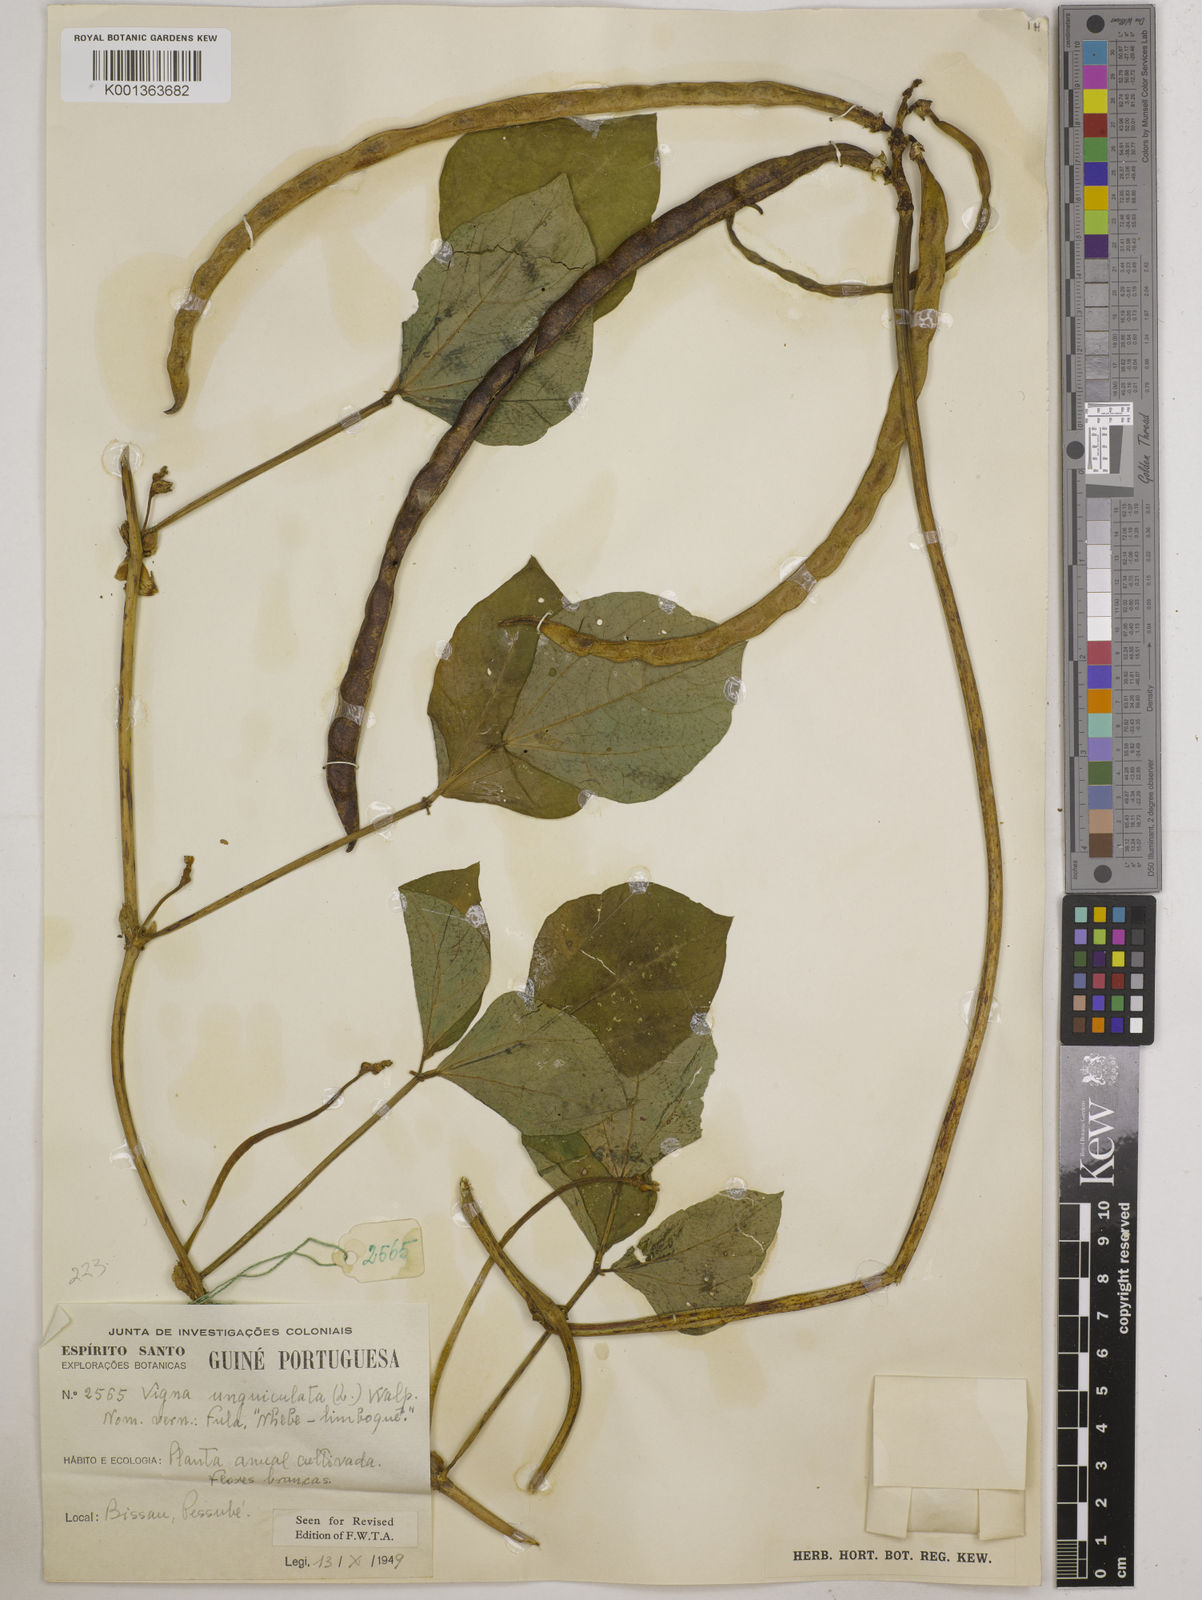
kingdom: Plantae
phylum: Tracheophyta
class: Magnoliopsida
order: Fabales
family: Fabaceae
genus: Vigna
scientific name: Vigna unguiculata
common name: Cowpea
